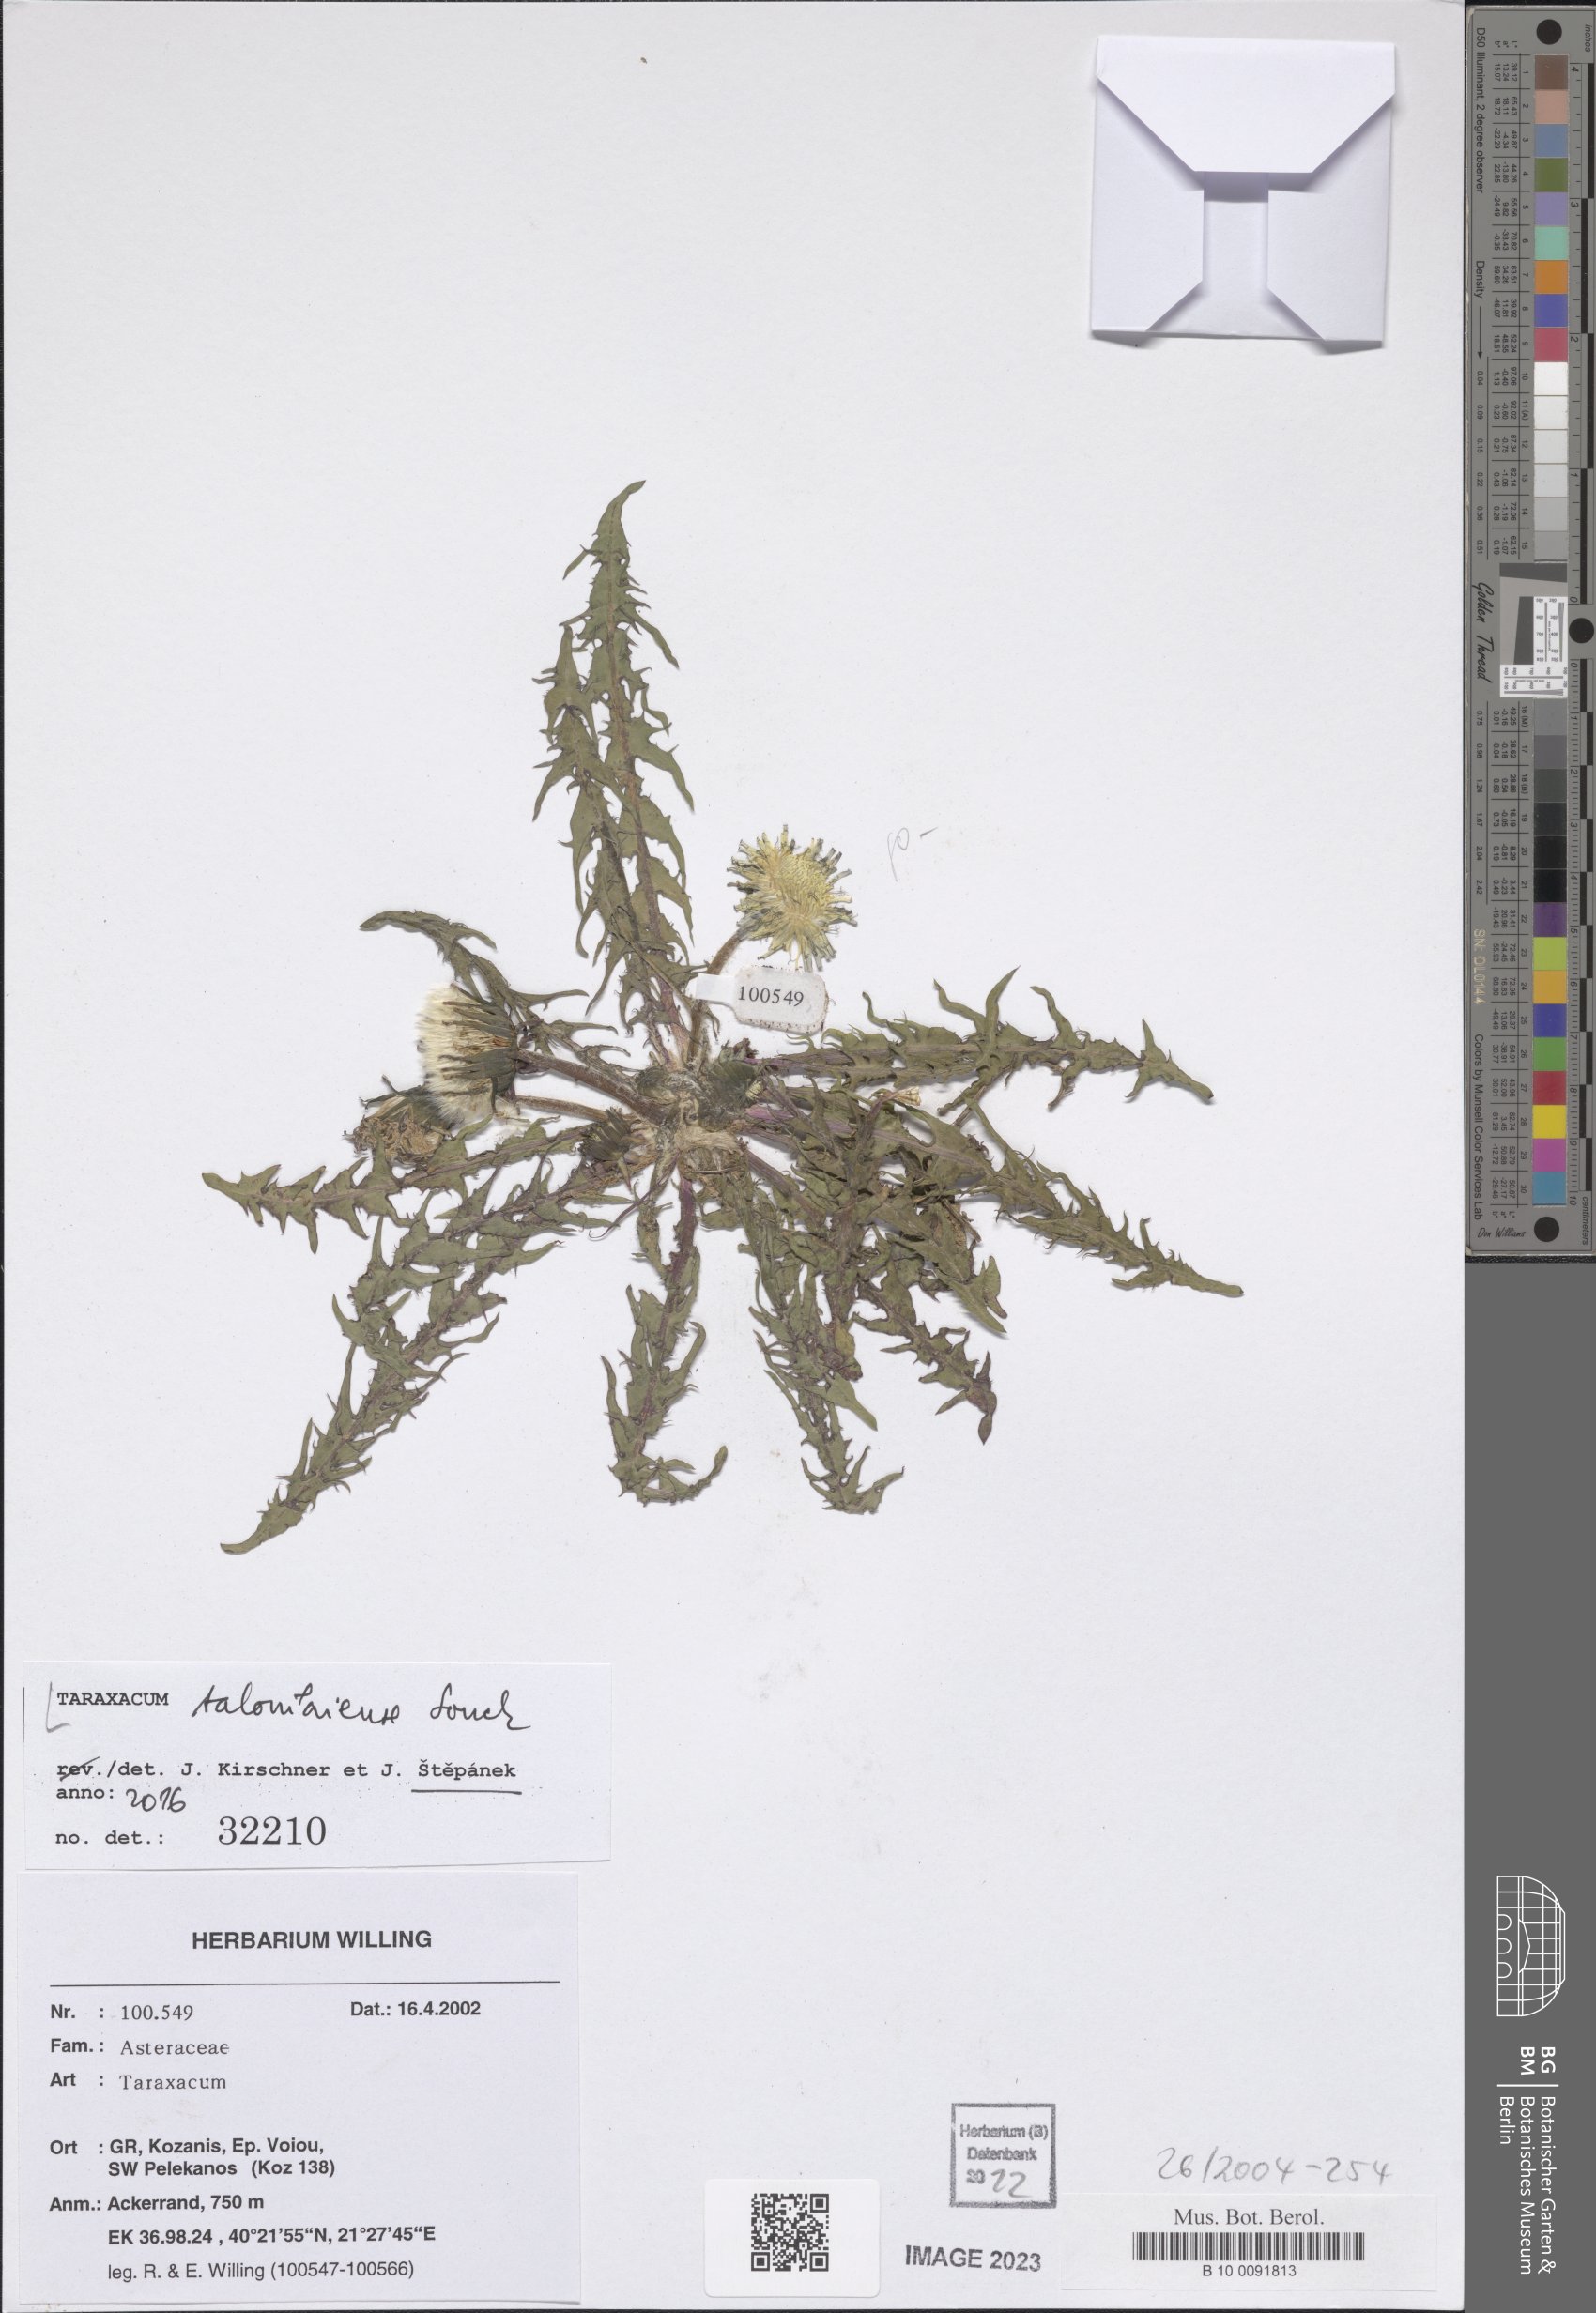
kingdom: Plantae
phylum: Tracheophyta
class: Magnoliopsida
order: Asterales
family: Asteraceae
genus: Taraxacum
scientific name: Taraxacum salonikiense
